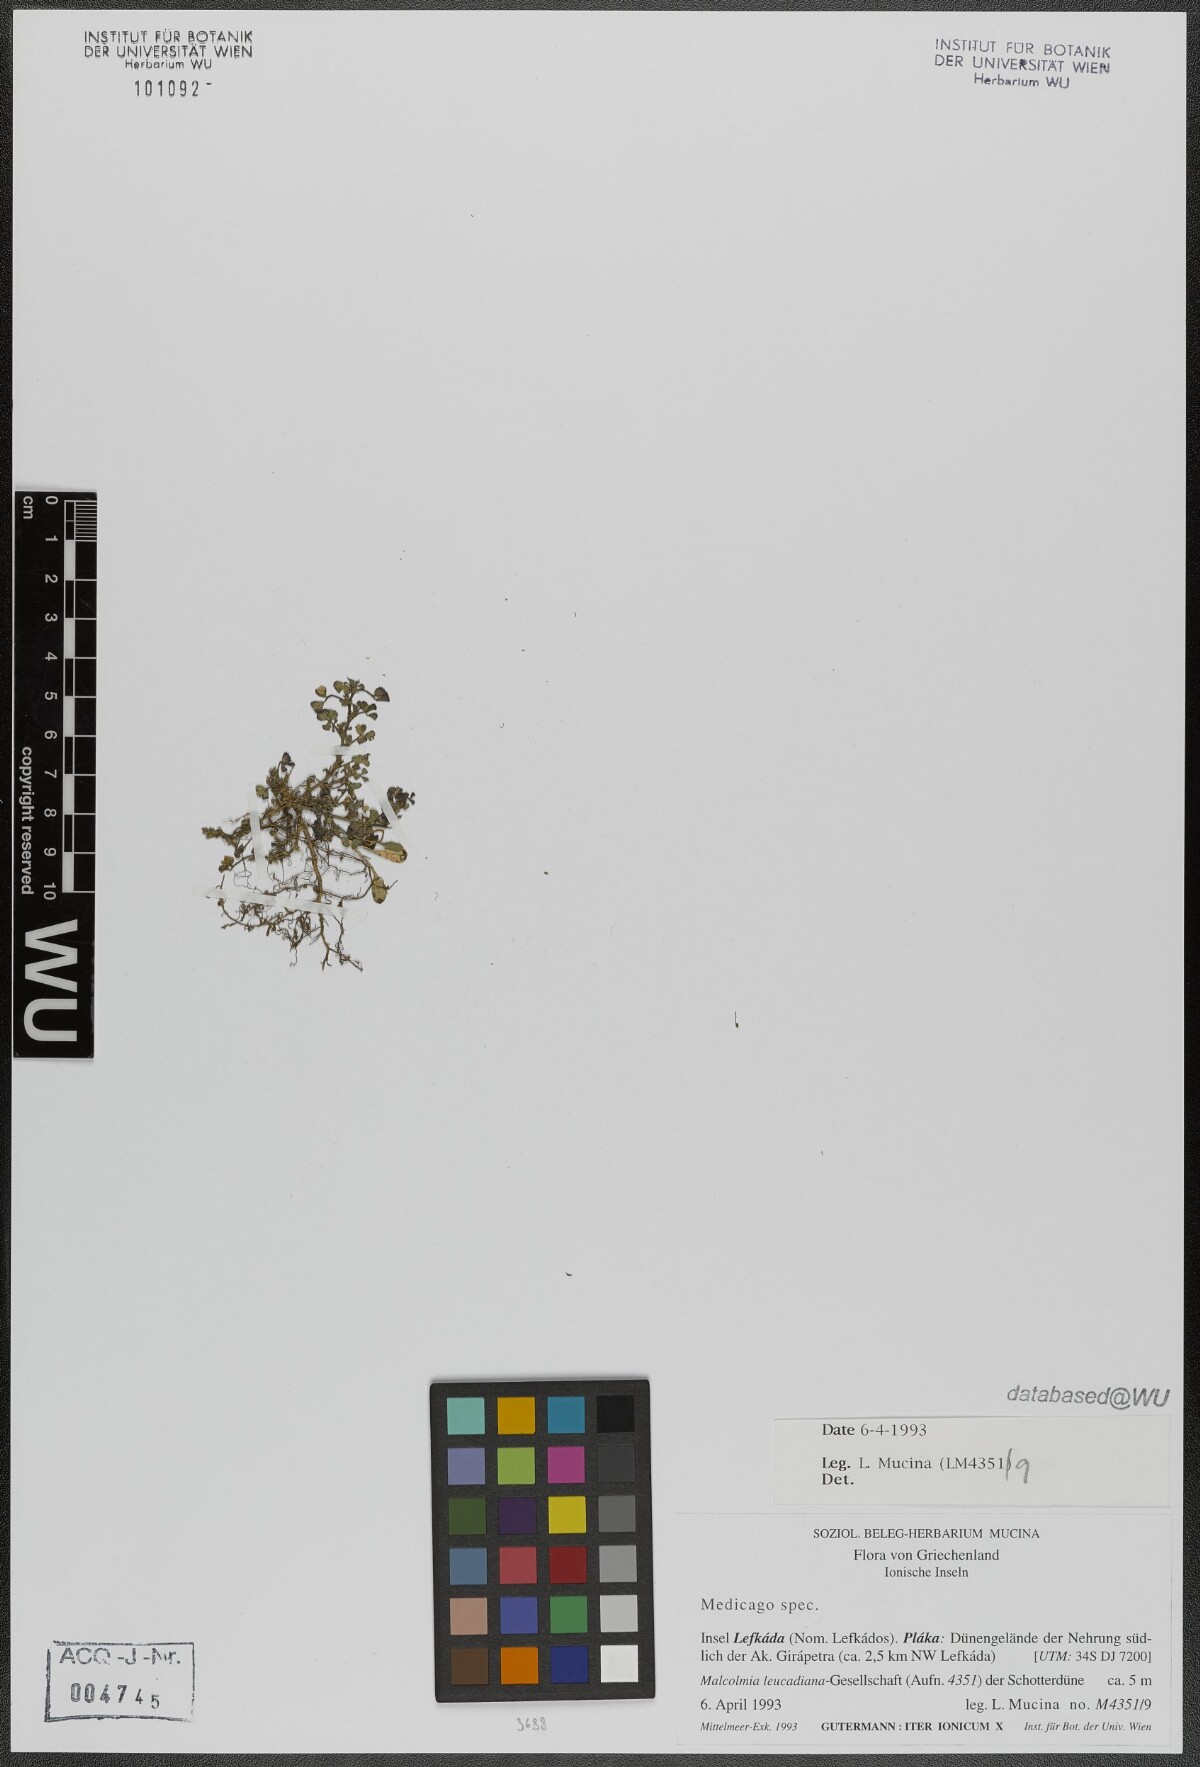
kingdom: Plantae
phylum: Tracheophyta
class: Magnoliopsida
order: Fabales
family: Fabaceae
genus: Medicago
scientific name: Medicago
